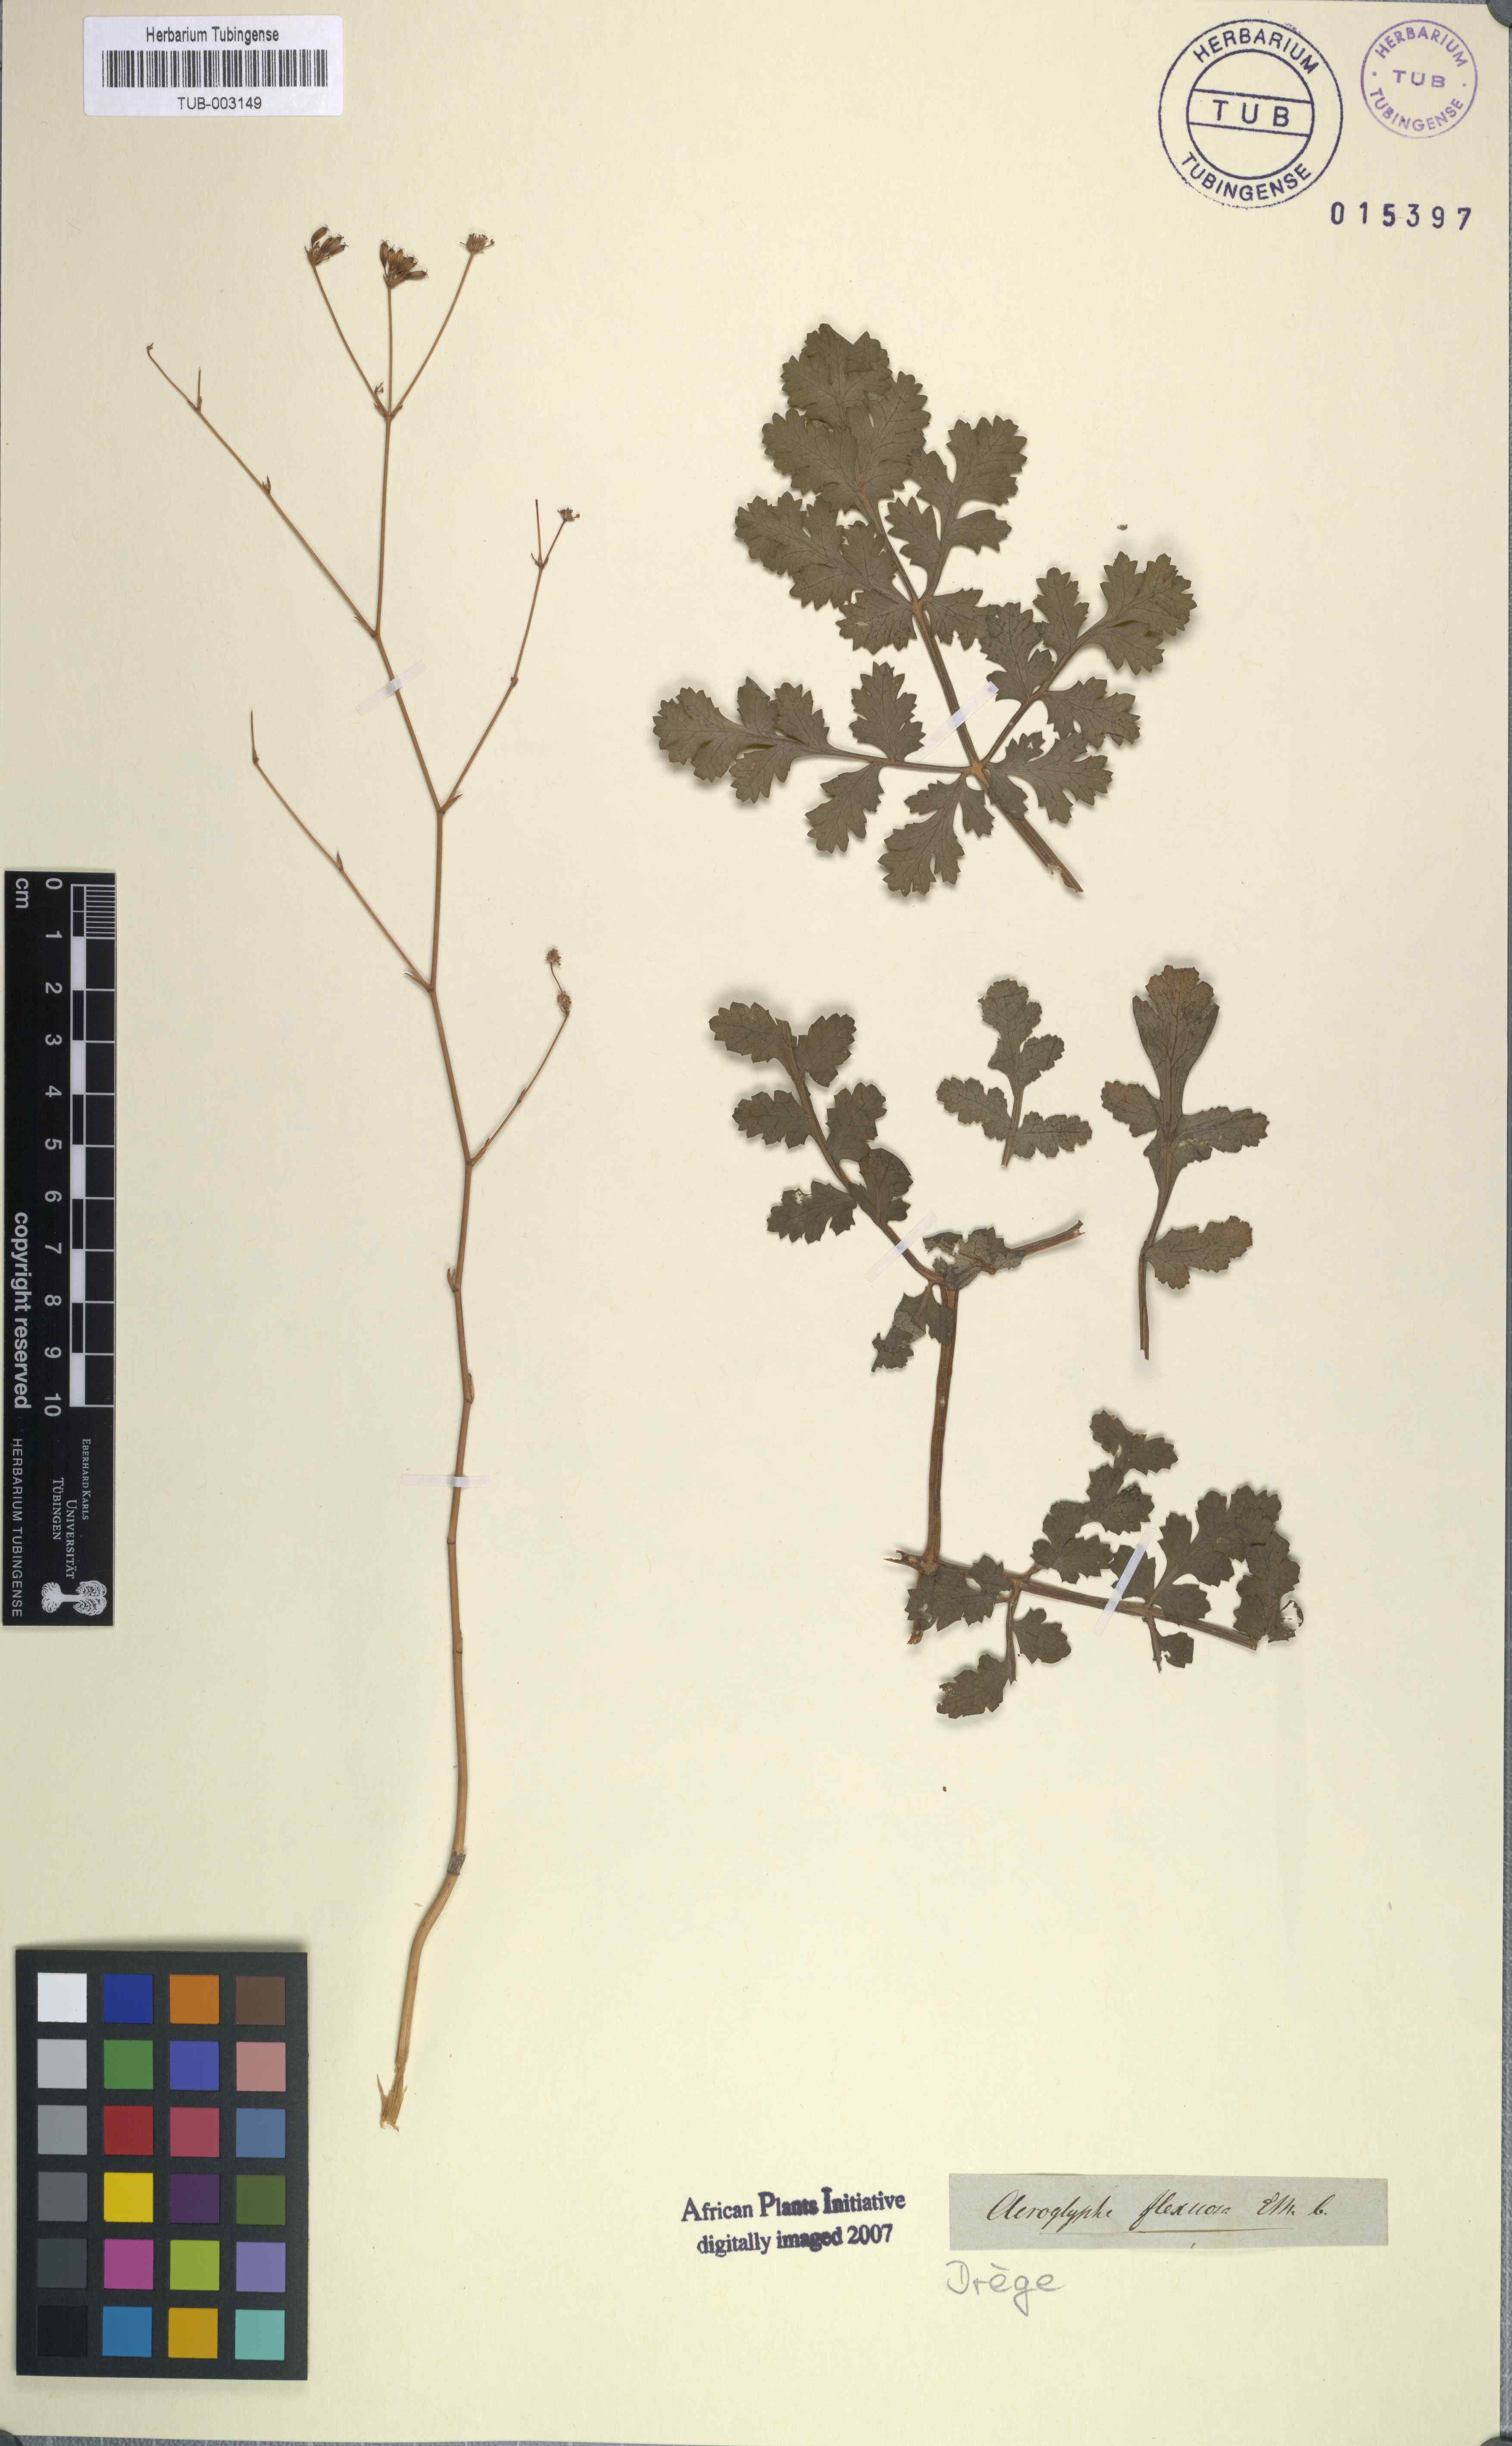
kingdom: Plantae
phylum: Tracheophyta
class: Magnoliopsida
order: Apiales
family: Apiaceae
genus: Annesorhiza
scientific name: Annesorhiza grandiflora
